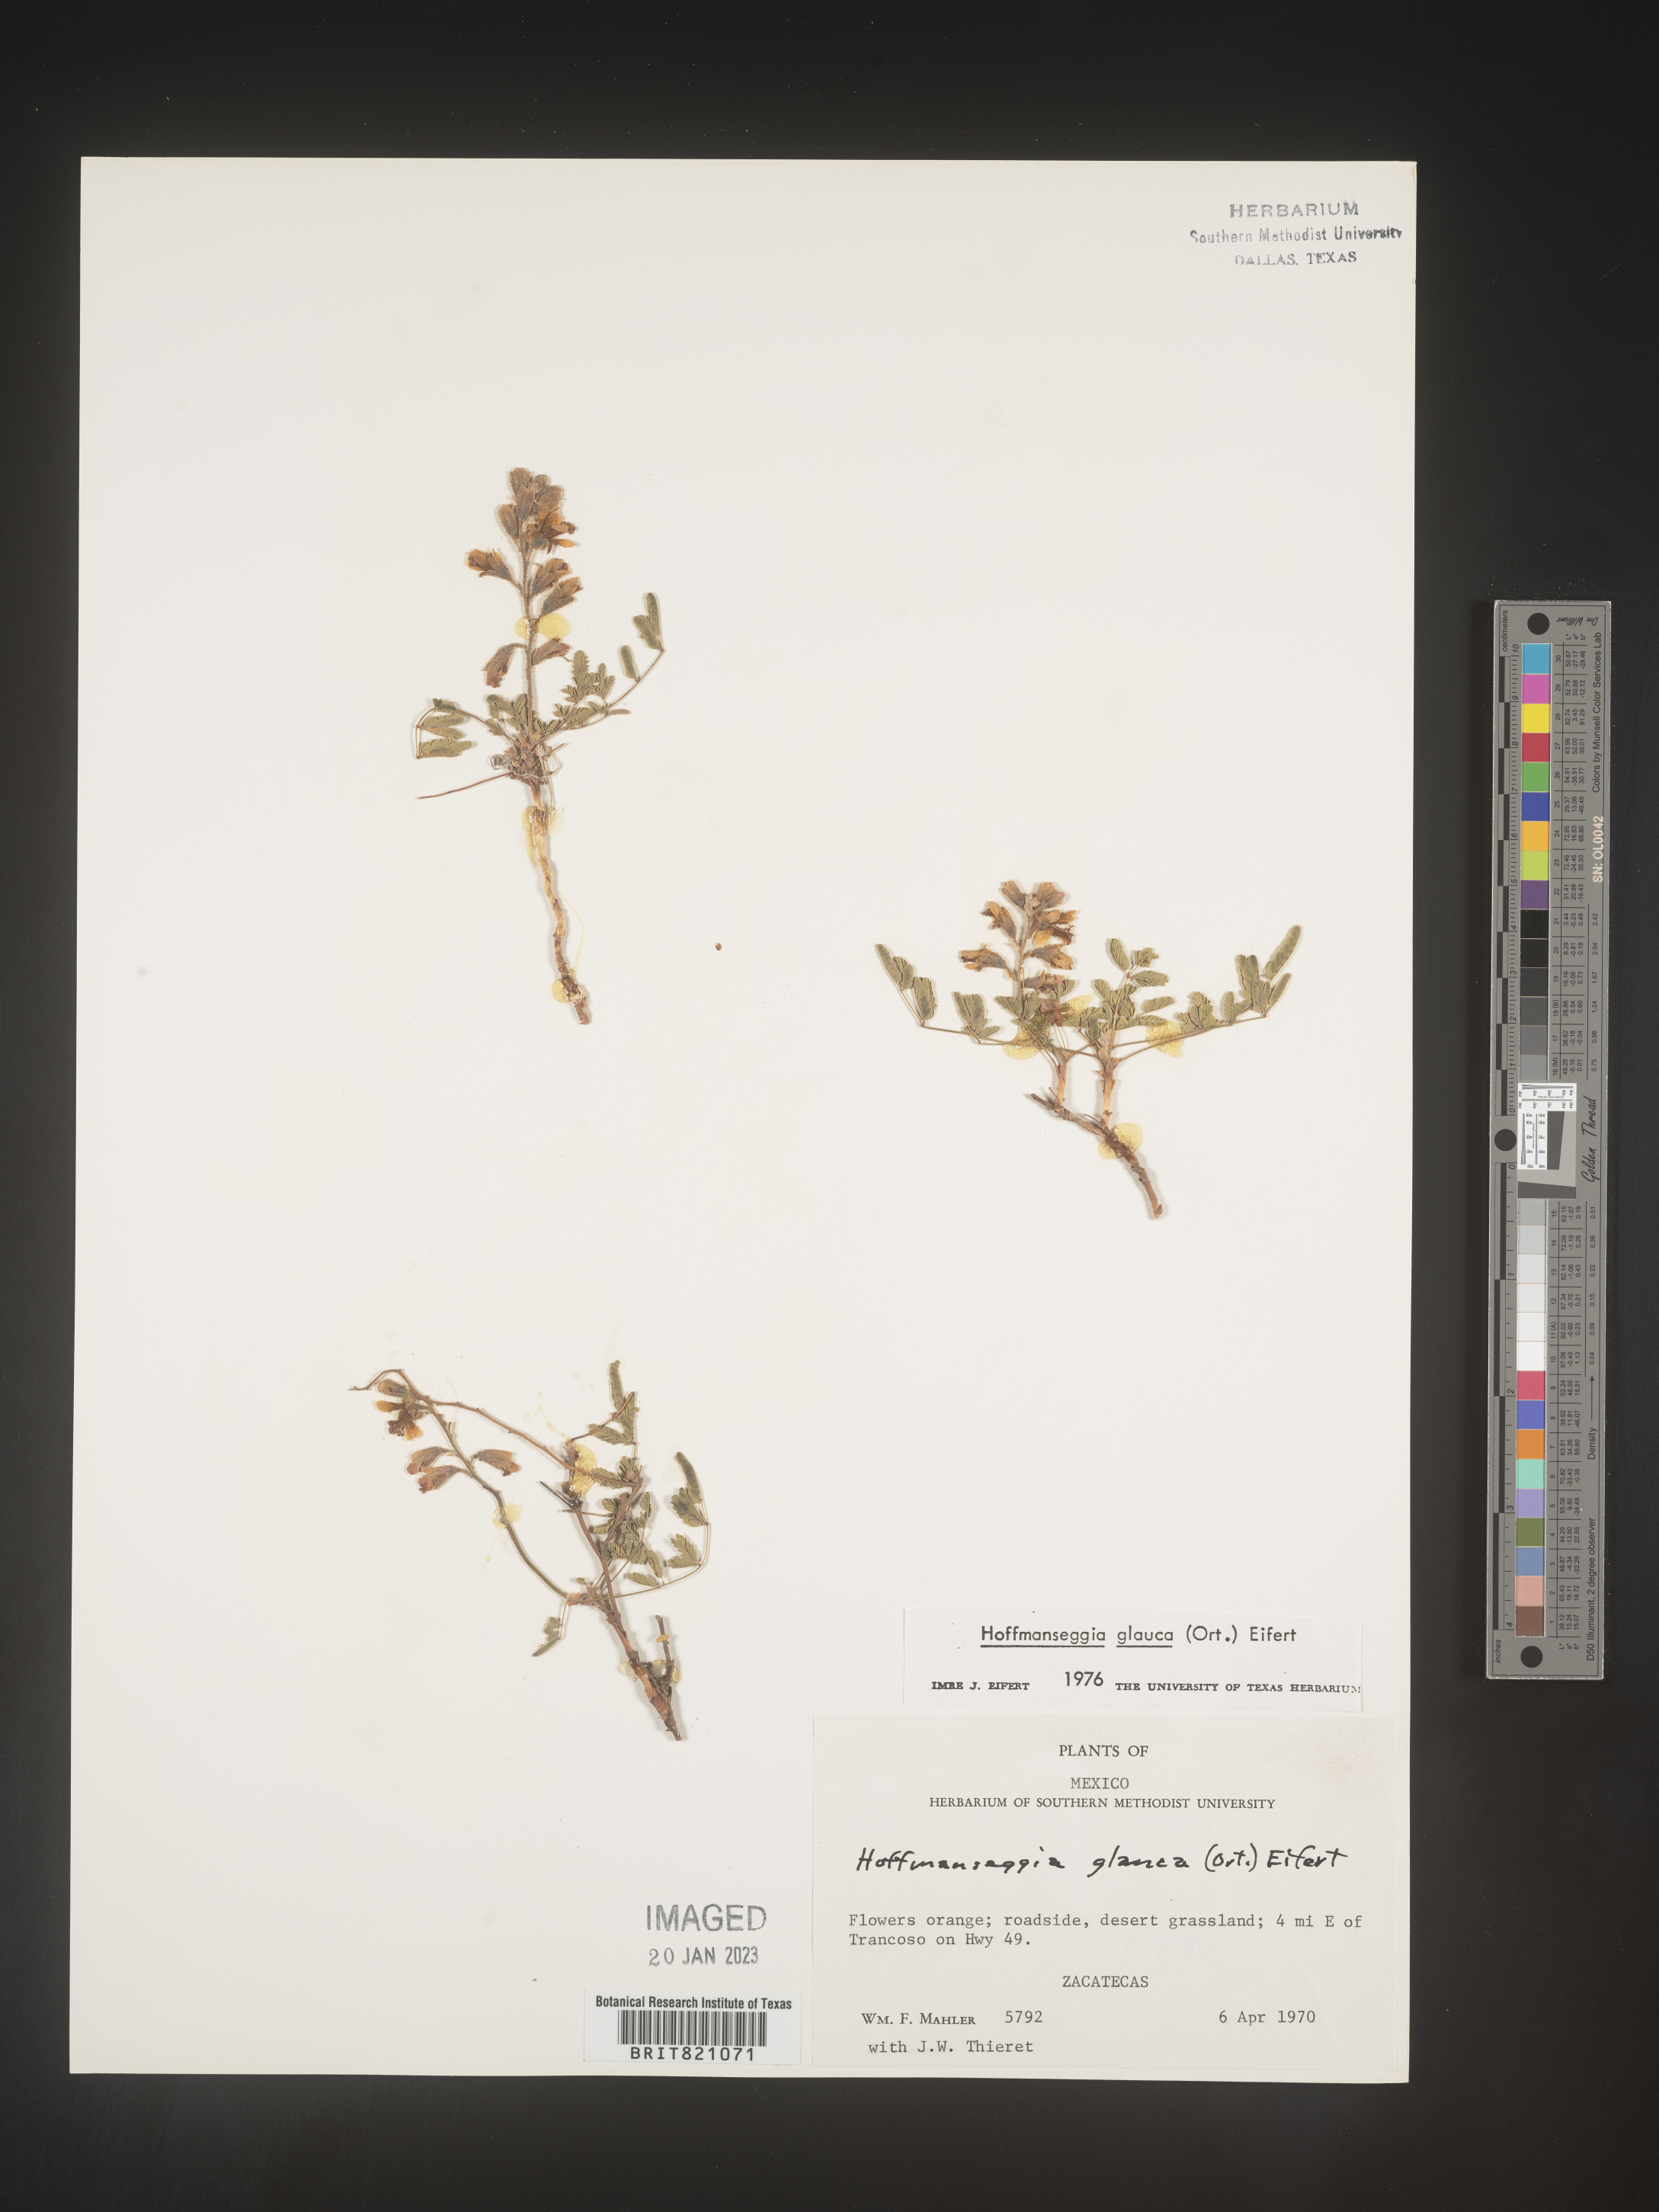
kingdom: Plantae
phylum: Tracheophyta
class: Magnoliopsida
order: Fabales
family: Fabaceae
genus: Hoffmannseggia
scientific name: Hoffmannseggia
